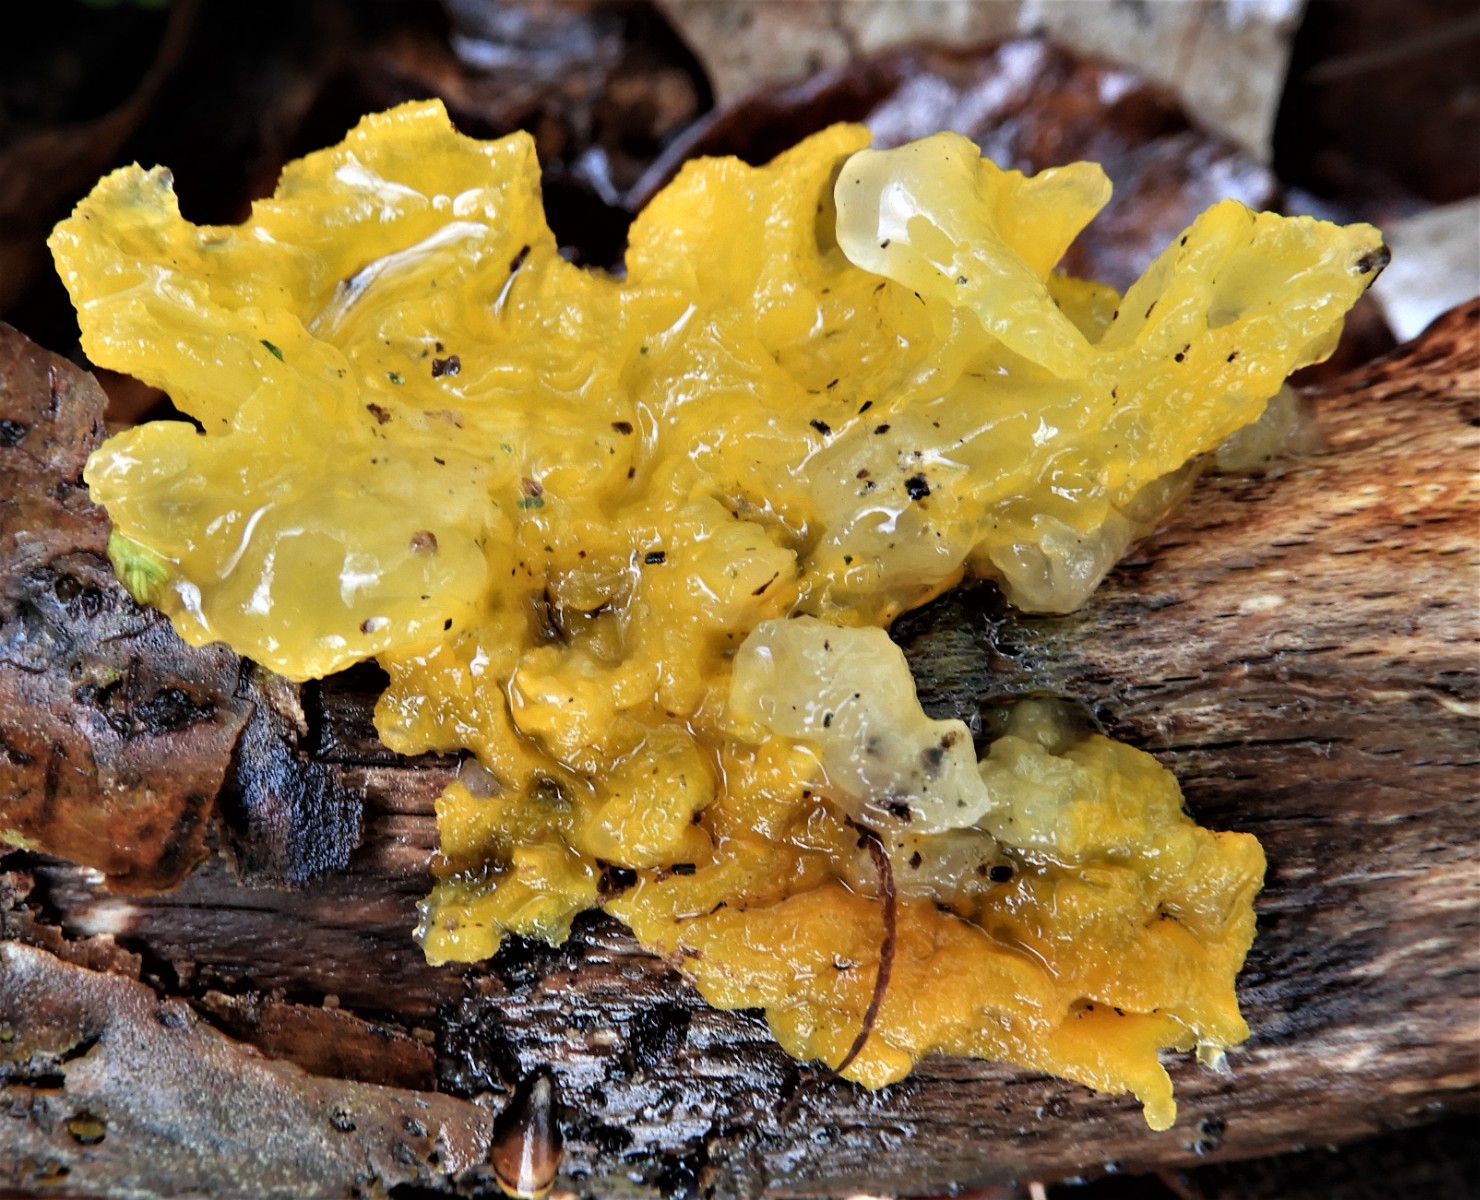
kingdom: Fungi
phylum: Basidiomycota
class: Tremellomycetes
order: Tremellales
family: Tremellaceae
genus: Tremella
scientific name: Tremella mesenterica
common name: gul bævresvamp
